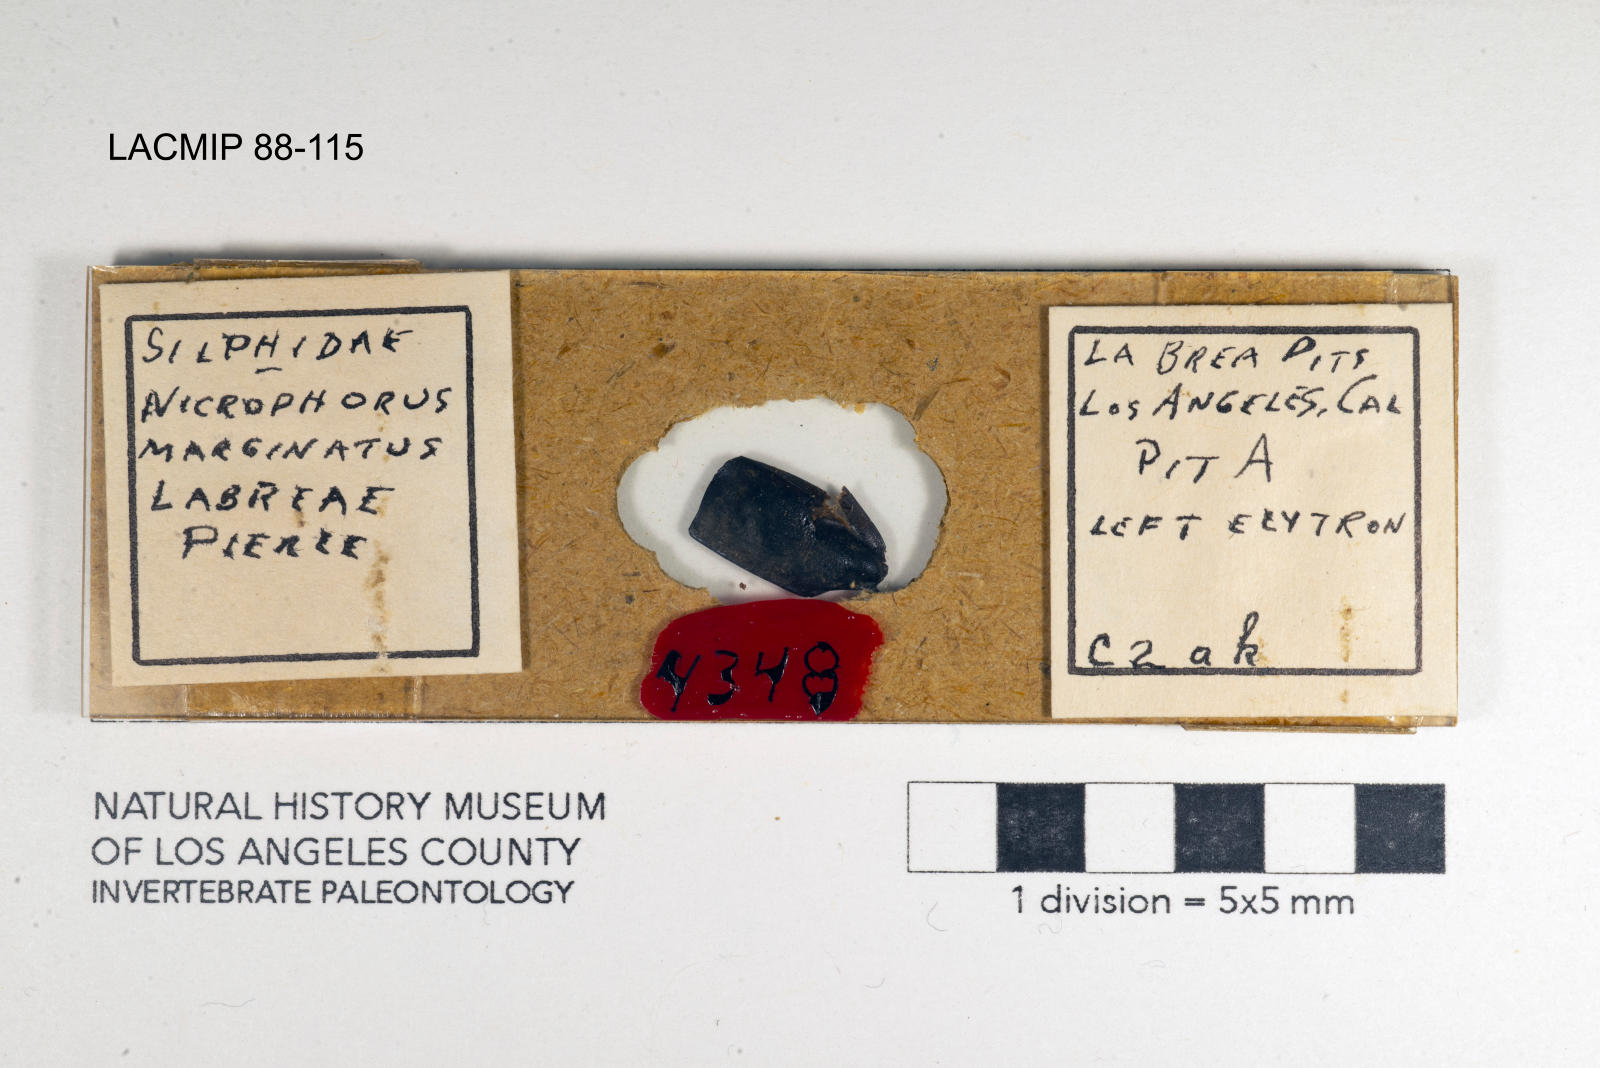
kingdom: Animalia
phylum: Arthropoda
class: Insecta
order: Coleoptera
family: Staphylinidae
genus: Nicrophorus
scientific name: Nicrophorus marginatus
